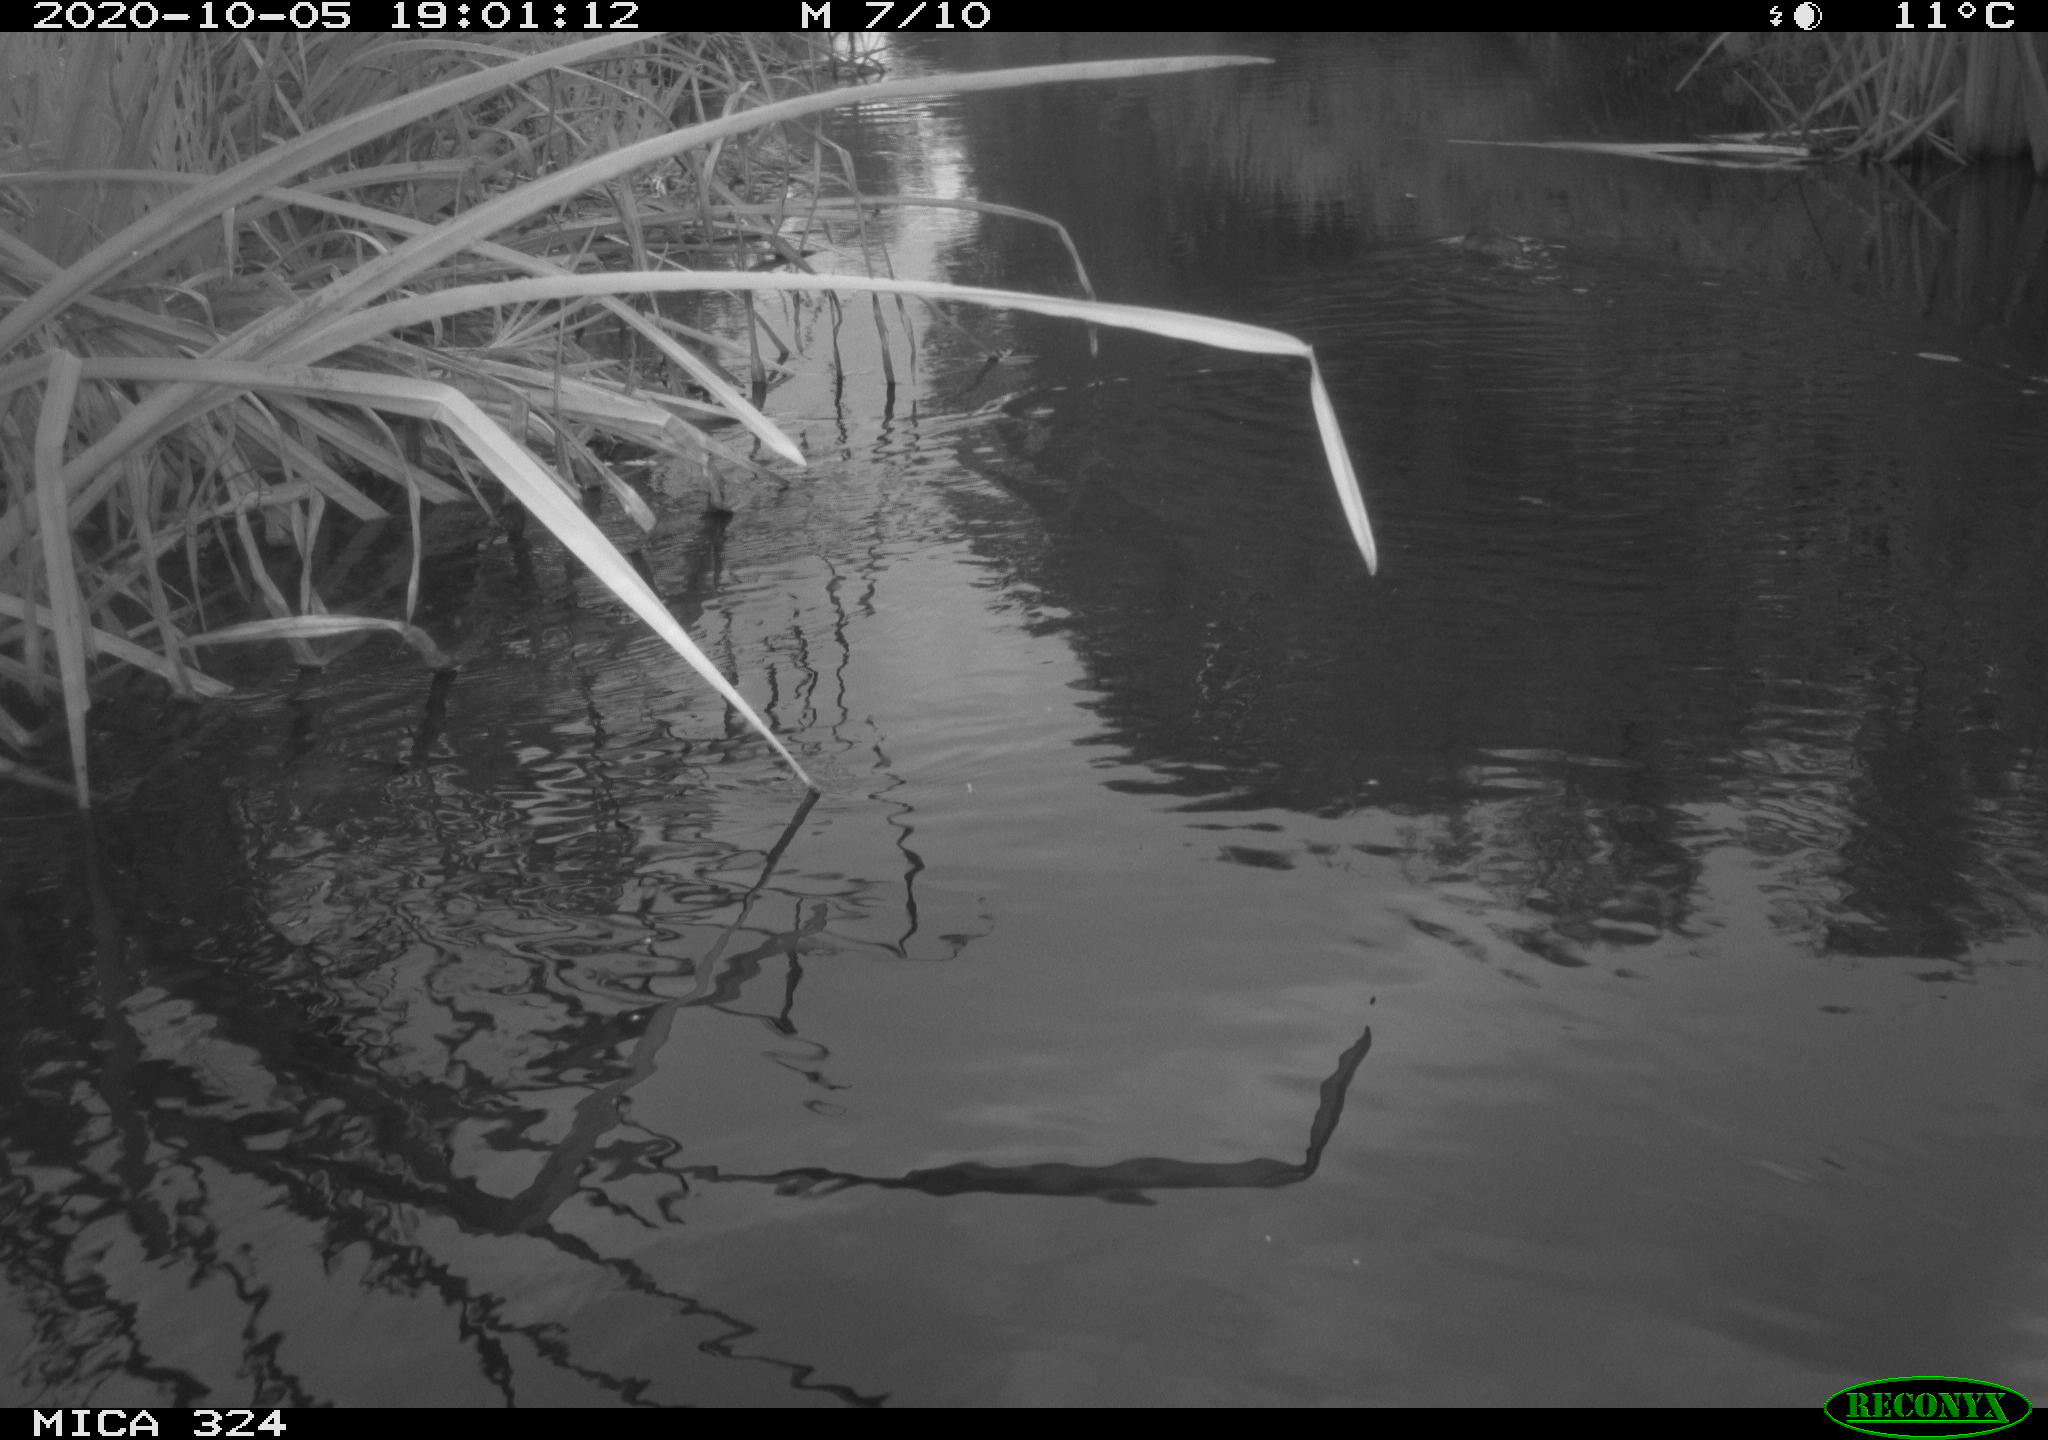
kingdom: Animalia
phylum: Chordata
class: Mammalia
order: Rodentia
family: Myocastoridae
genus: Myocastor
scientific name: Myocastor coypus
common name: Coypu
